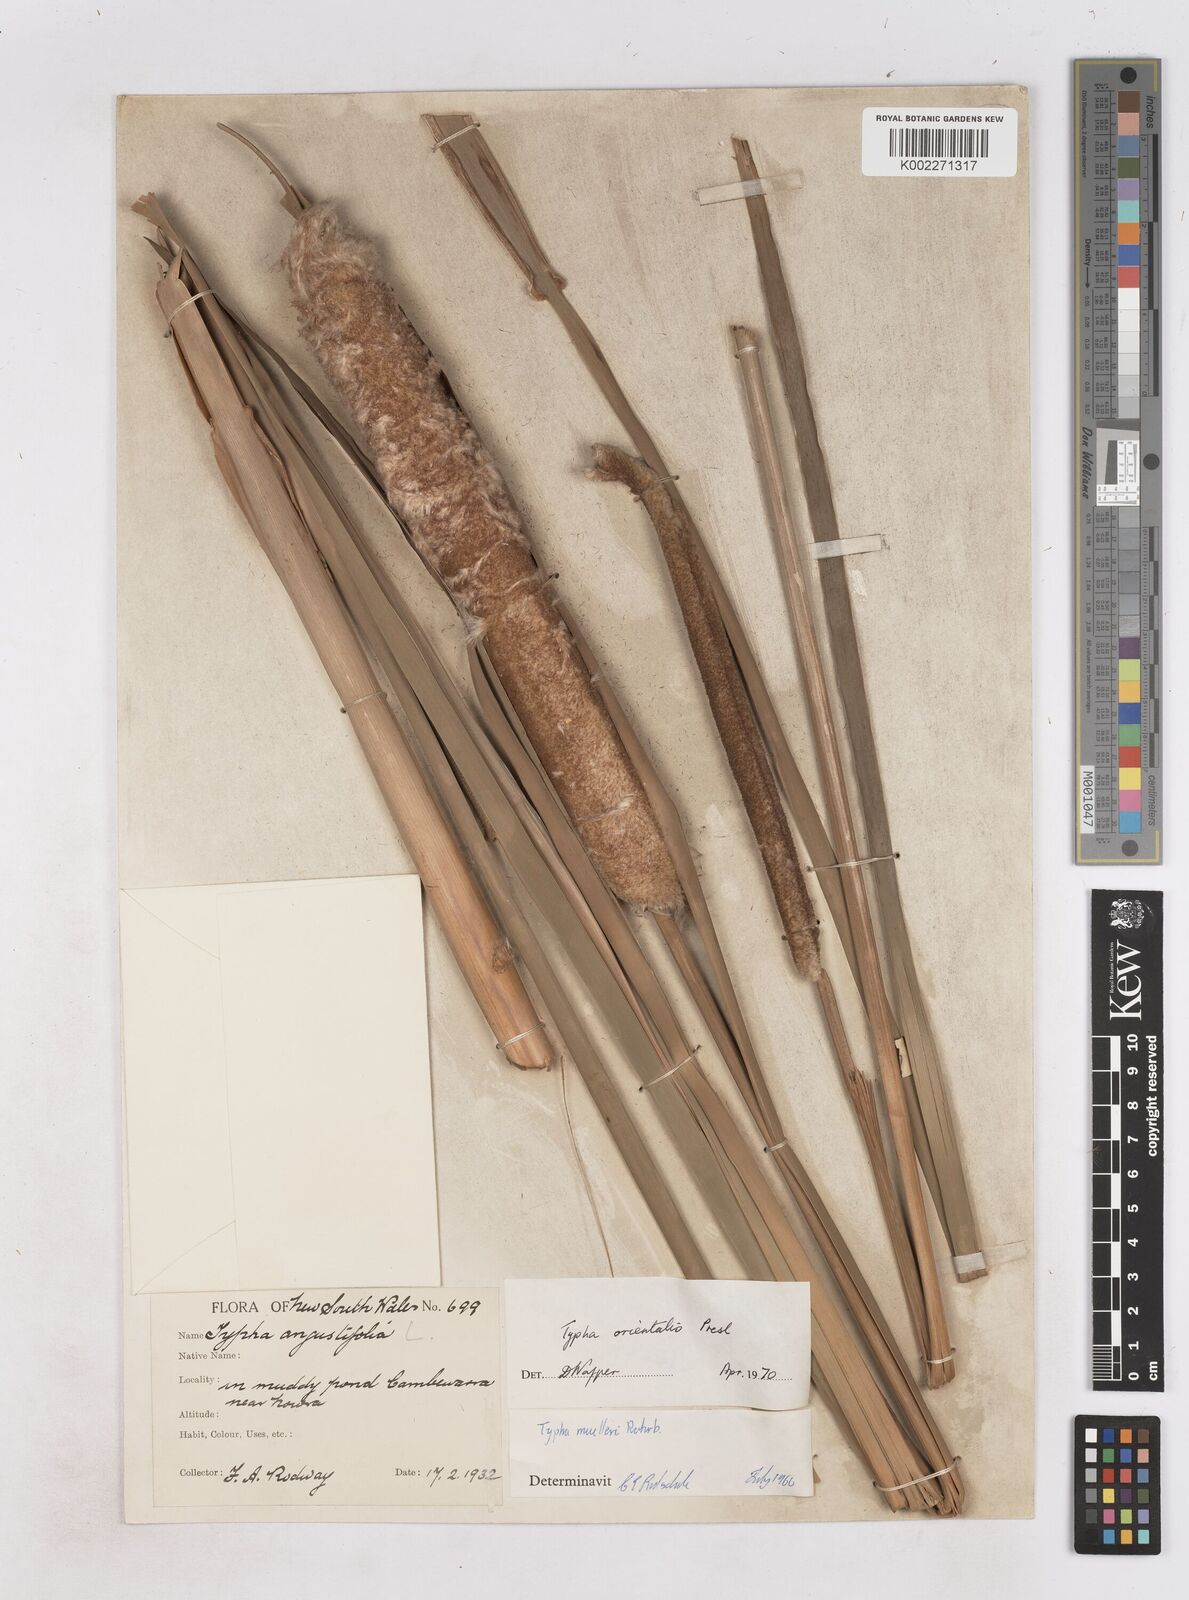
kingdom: Plantae
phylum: Tracheophyta
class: Liliopsida
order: Poales
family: Typhaceae
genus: Typha
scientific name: Typha orientalis
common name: Bullrush
